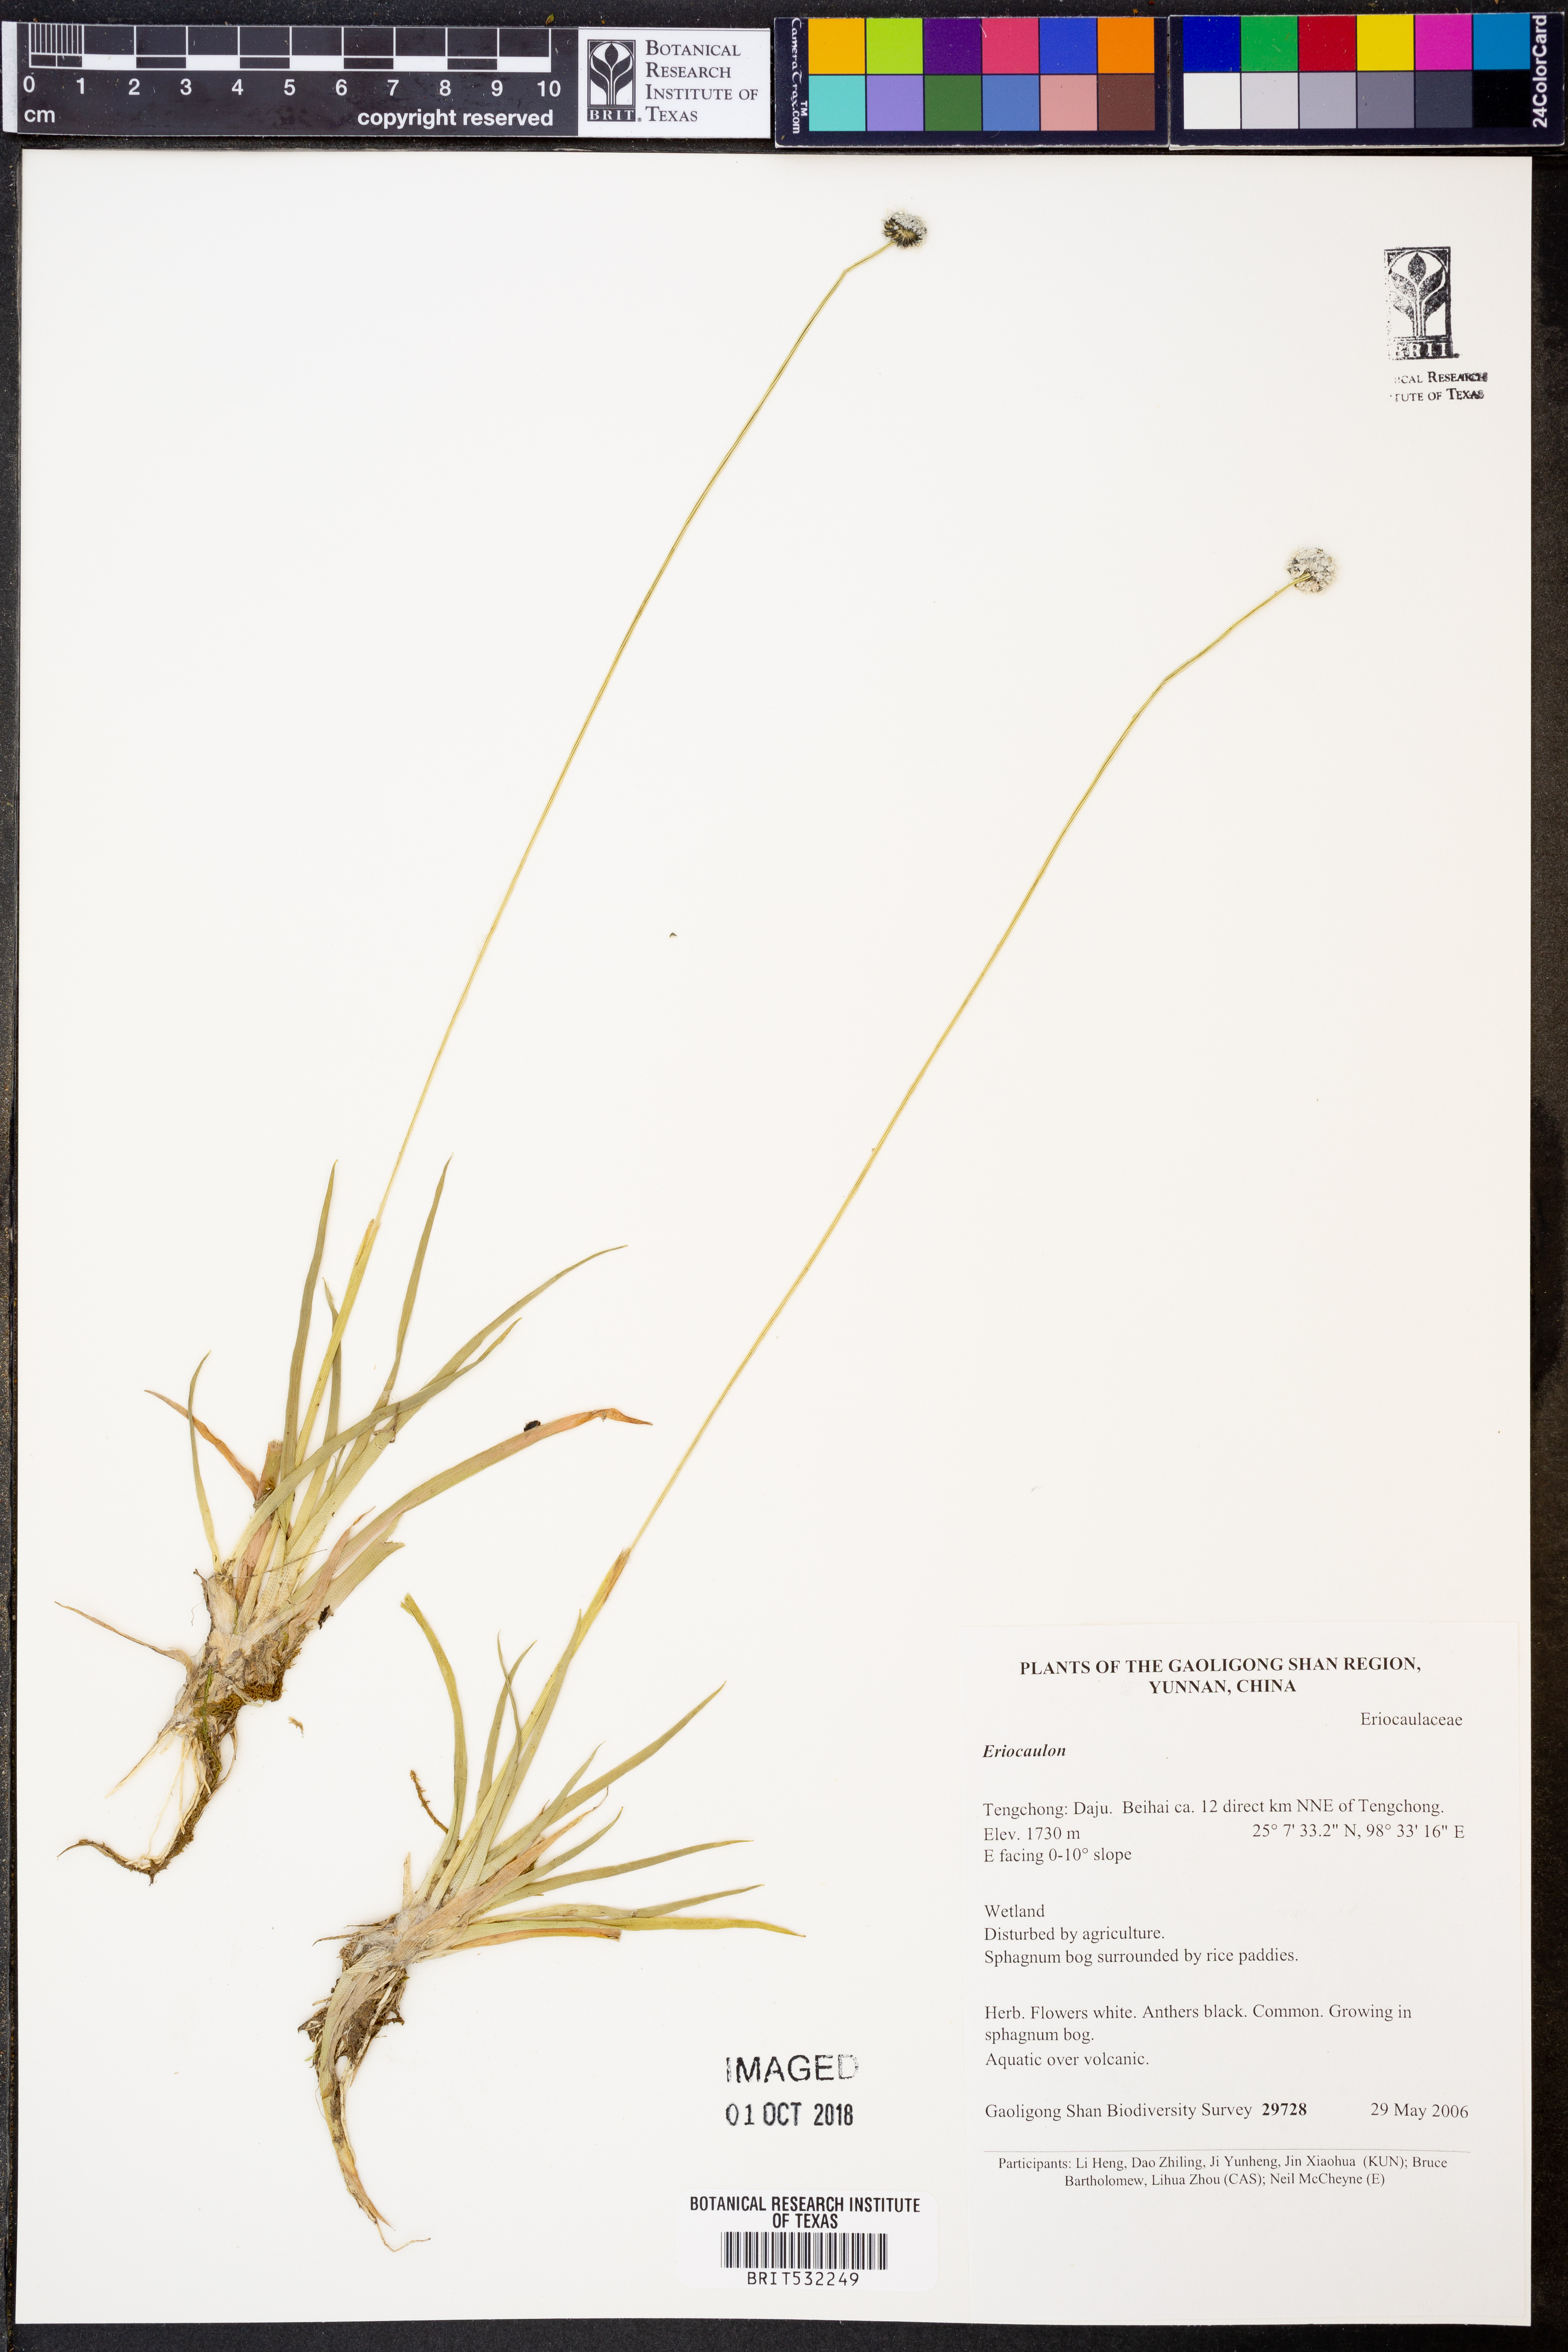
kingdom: Plantae
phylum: Tracheophyta
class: Liliopsida
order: Poales
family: Eriocaulaceae
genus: Eriocaulon
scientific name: Eriocaulon
